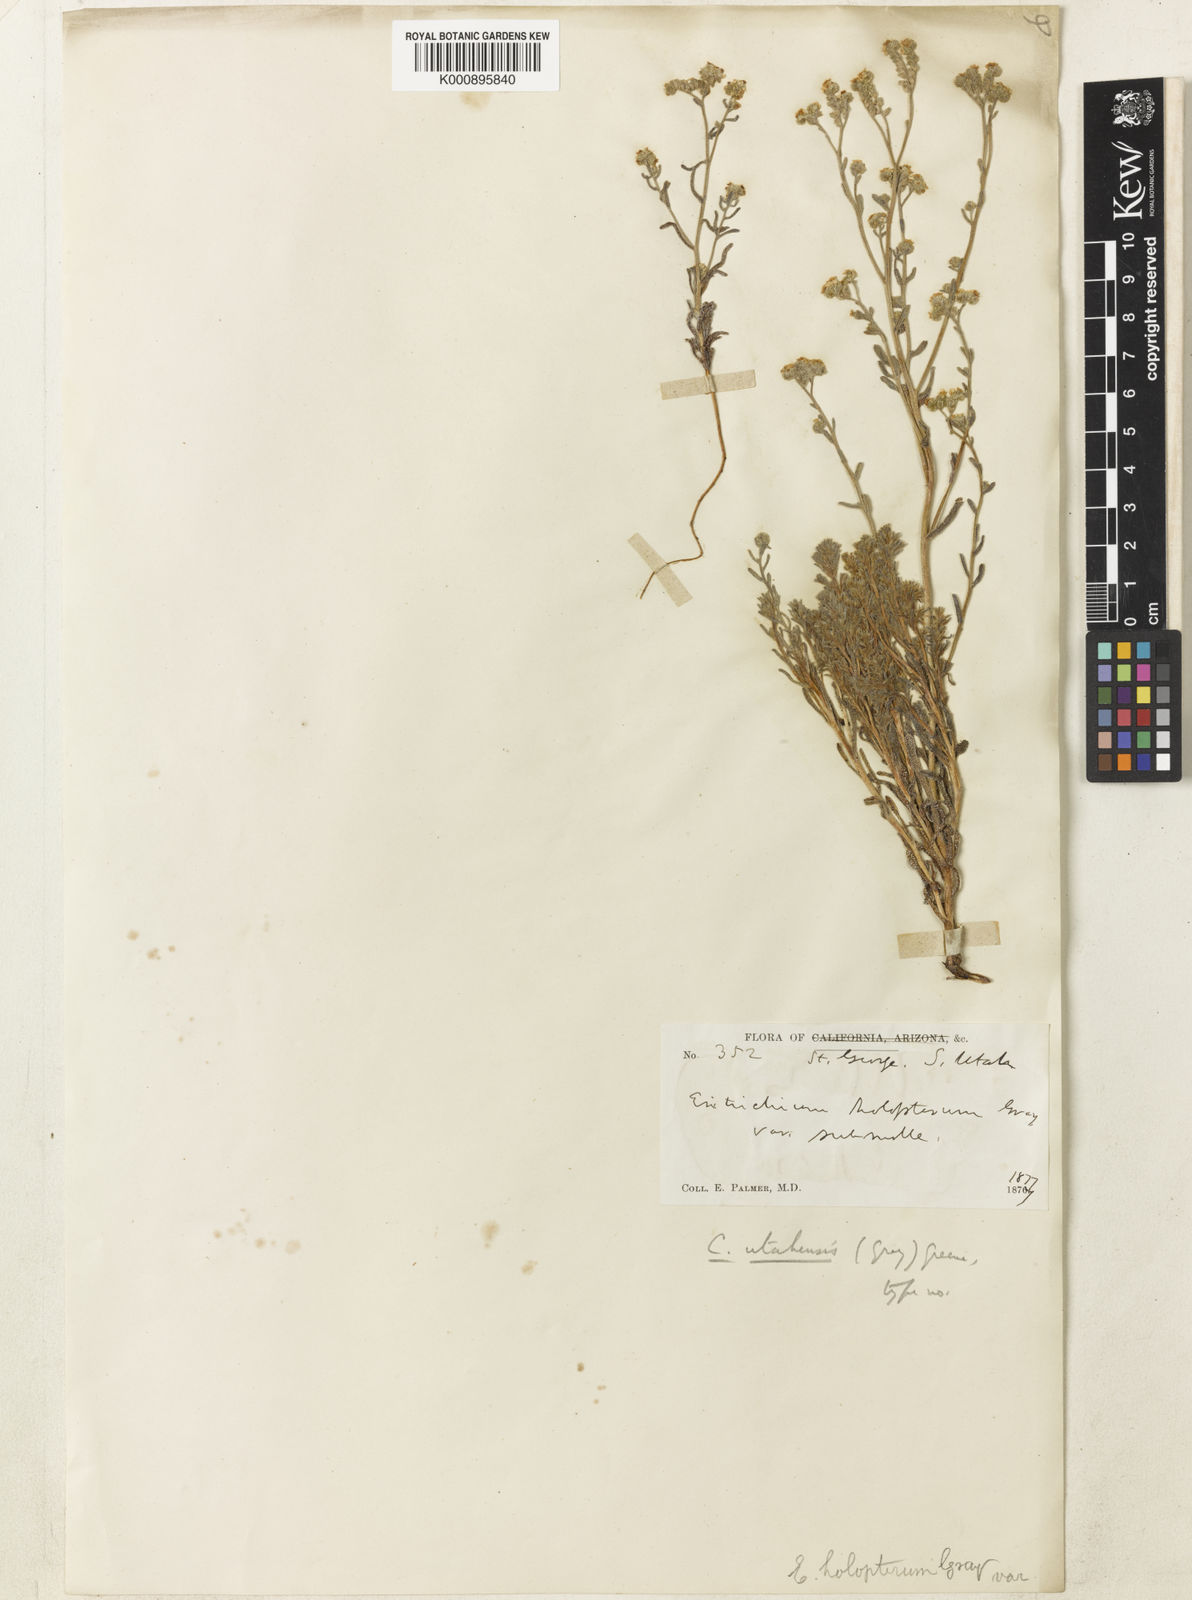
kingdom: Plantae
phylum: Tracheophyta
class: Magnoliopsida
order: Boraginales
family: Boraginaceae
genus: Cryptantha
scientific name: Cryptantha utahensis
